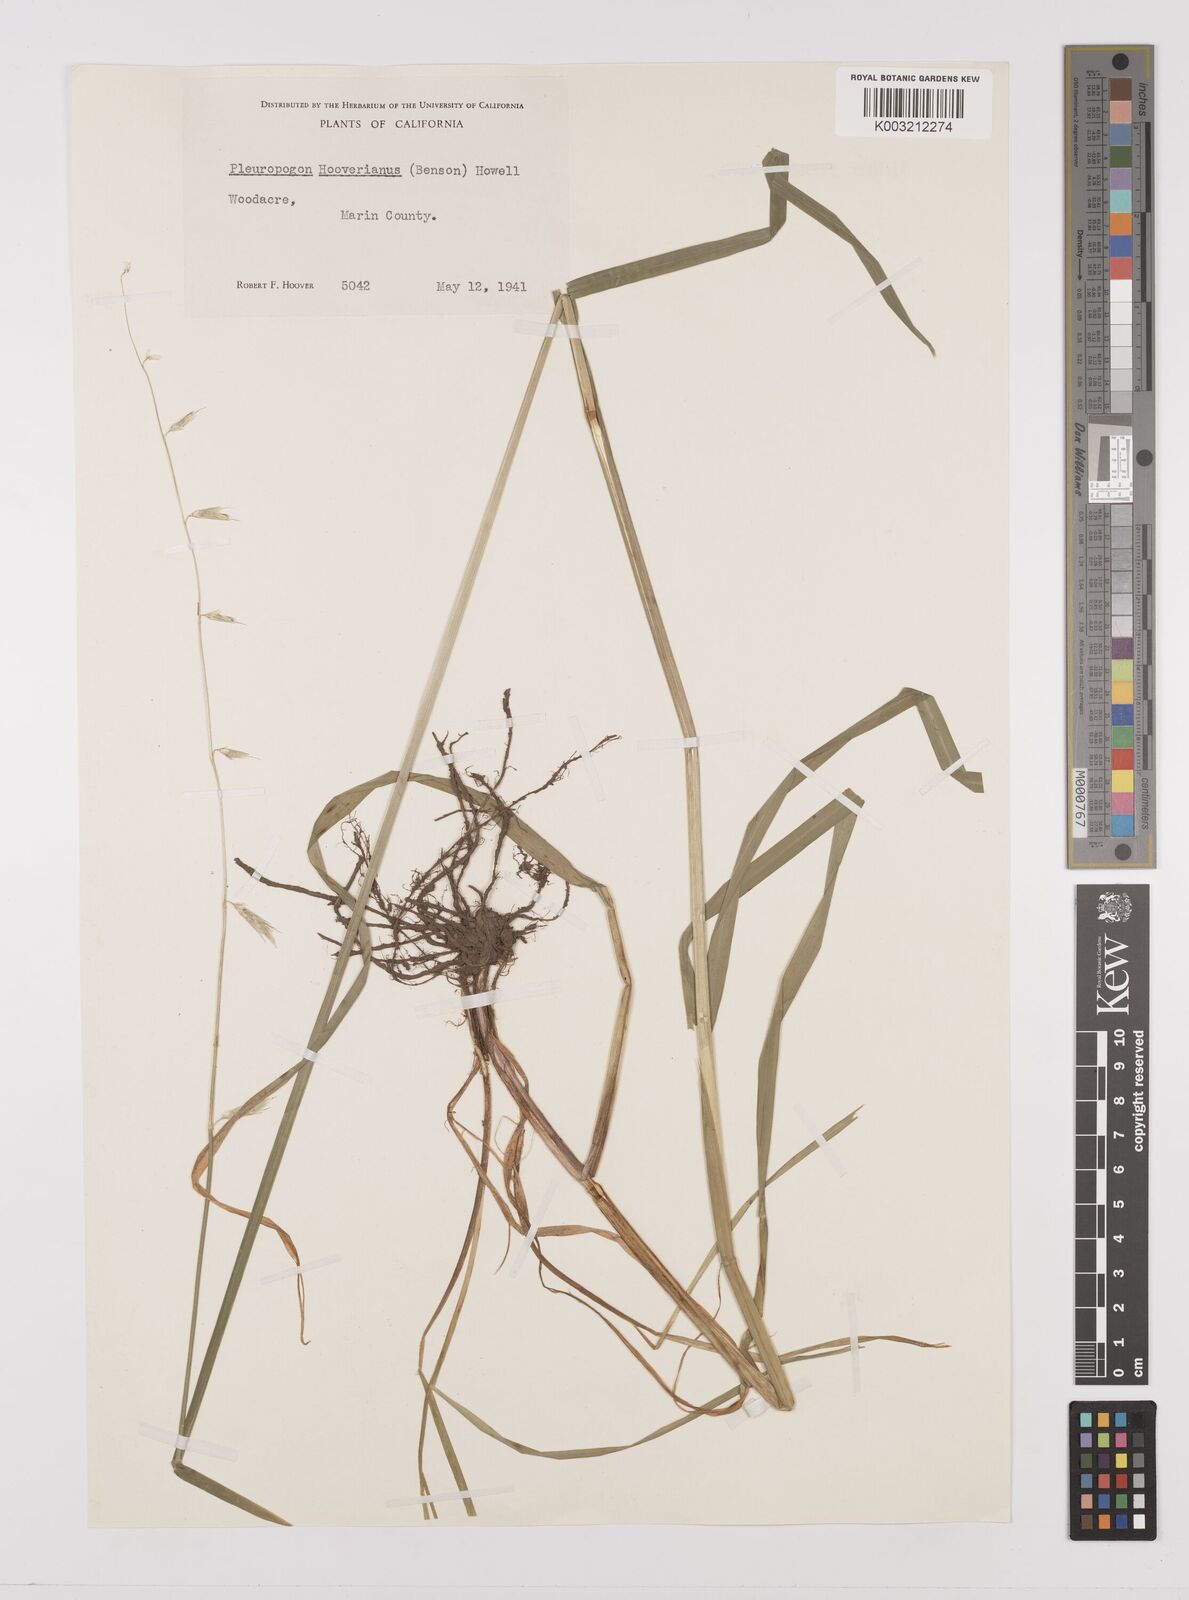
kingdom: Plantae
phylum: Tracheophyta
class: Liliopsida
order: Poales
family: Poaceae
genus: Pleuropogon
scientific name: Pleuropogon hooverianus
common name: North coast semaphore grass
